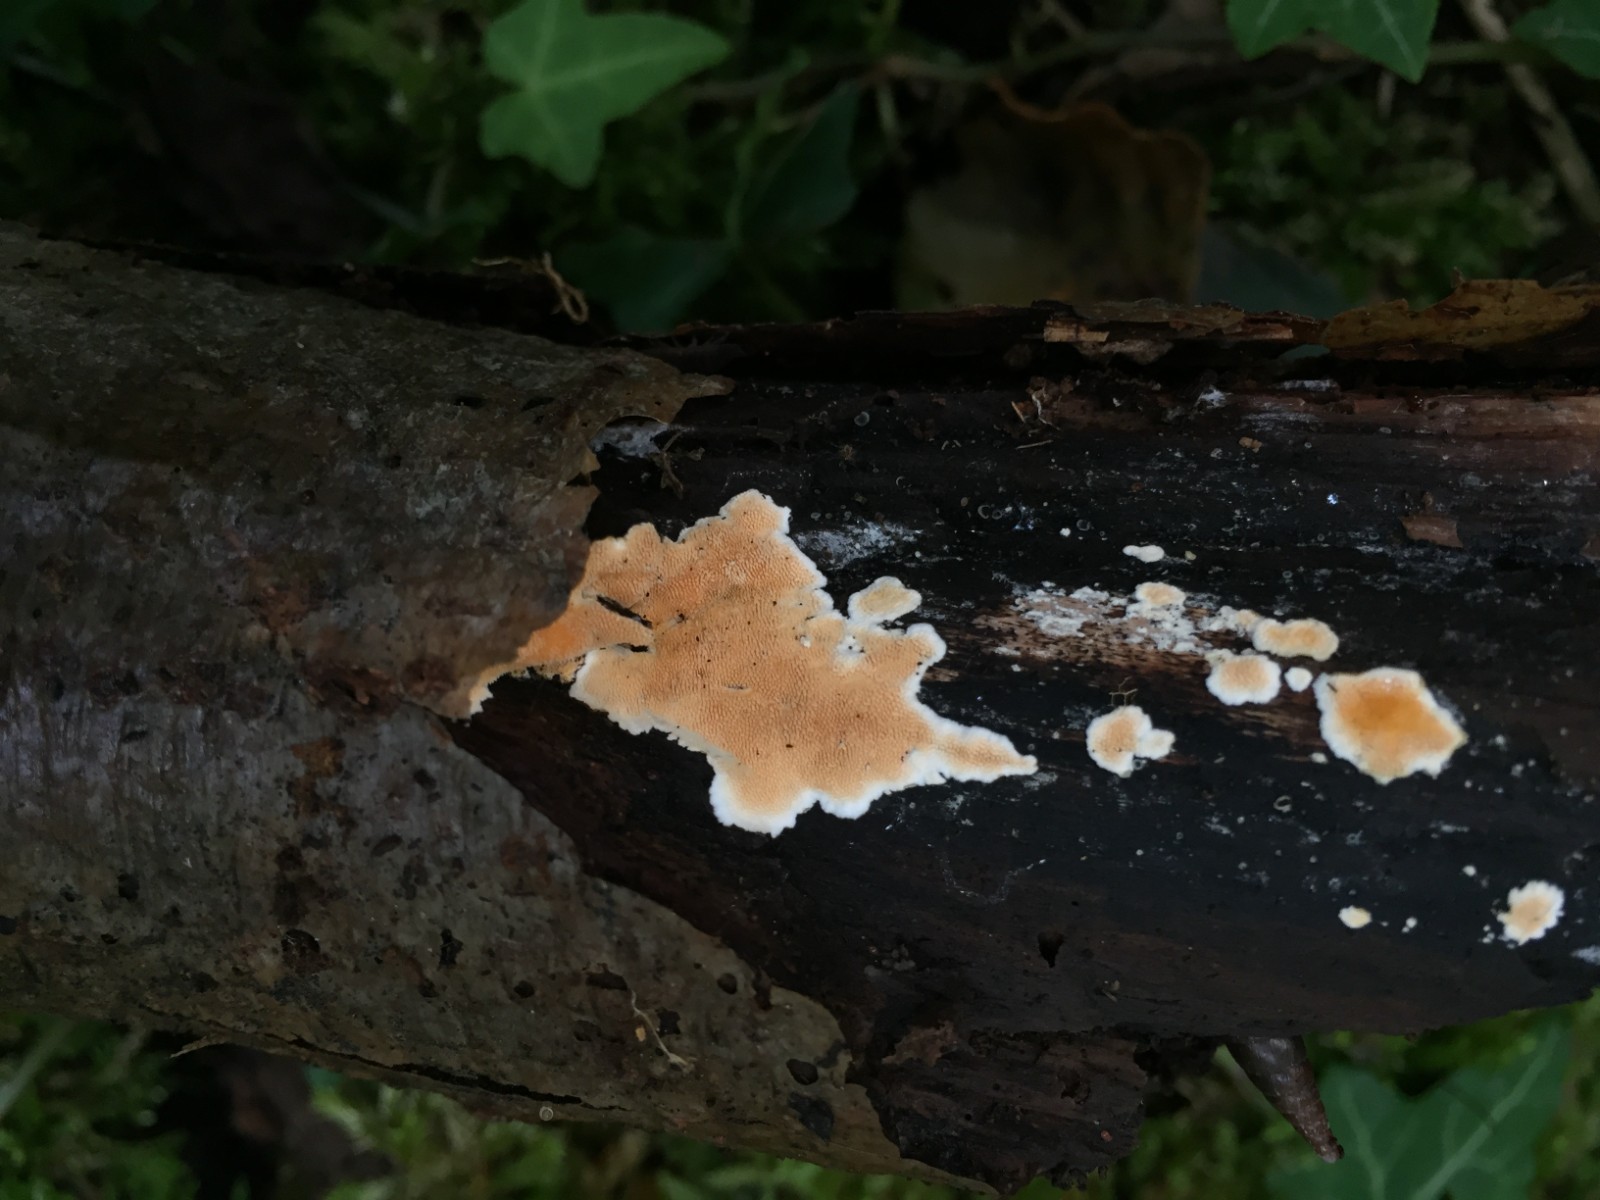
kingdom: Fungi
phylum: Basidiomycota
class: Agaricomycetes
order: Polyporales
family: Steccherinaceae
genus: Steccherinum
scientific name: Steccherinum ochraceum
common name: almindelig skønpig
